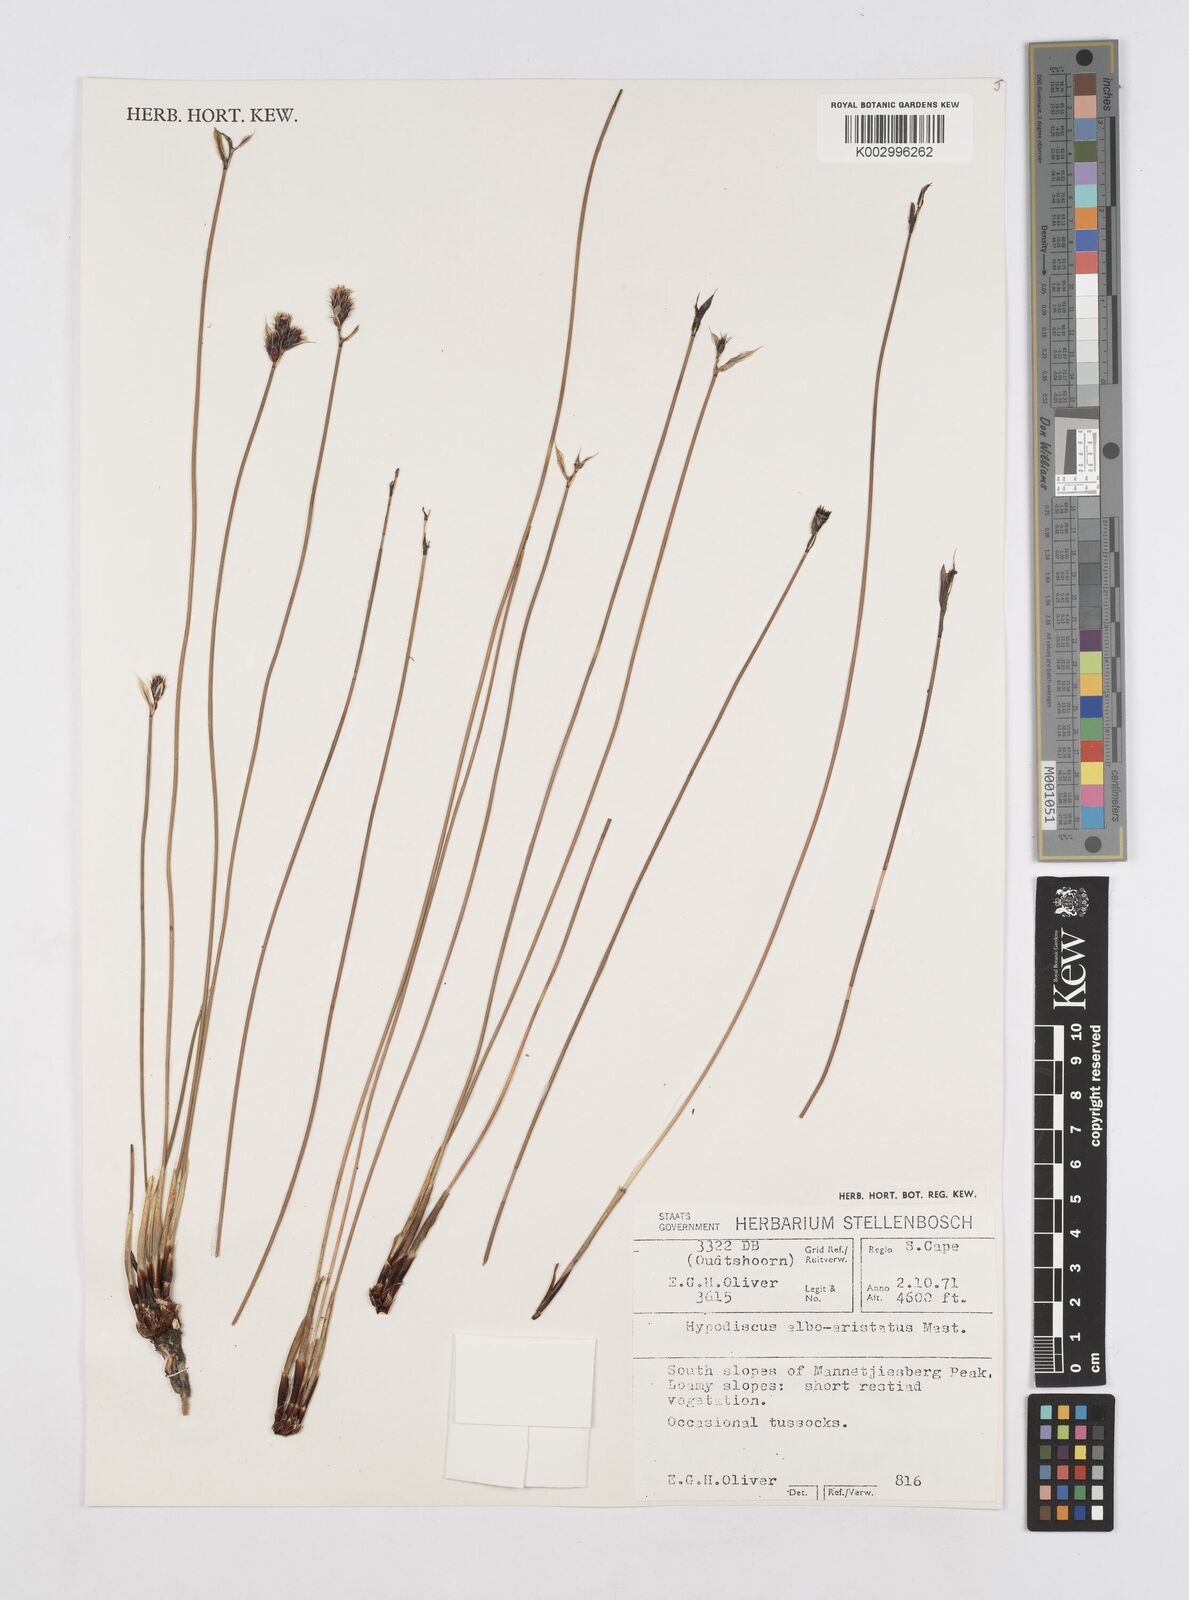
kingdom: Plantae
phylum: Tracheophyta
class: Liliopsida
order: Poales
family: Restionaceae
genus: Hypodiscus
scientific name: Hypodiscus alboaristatus
